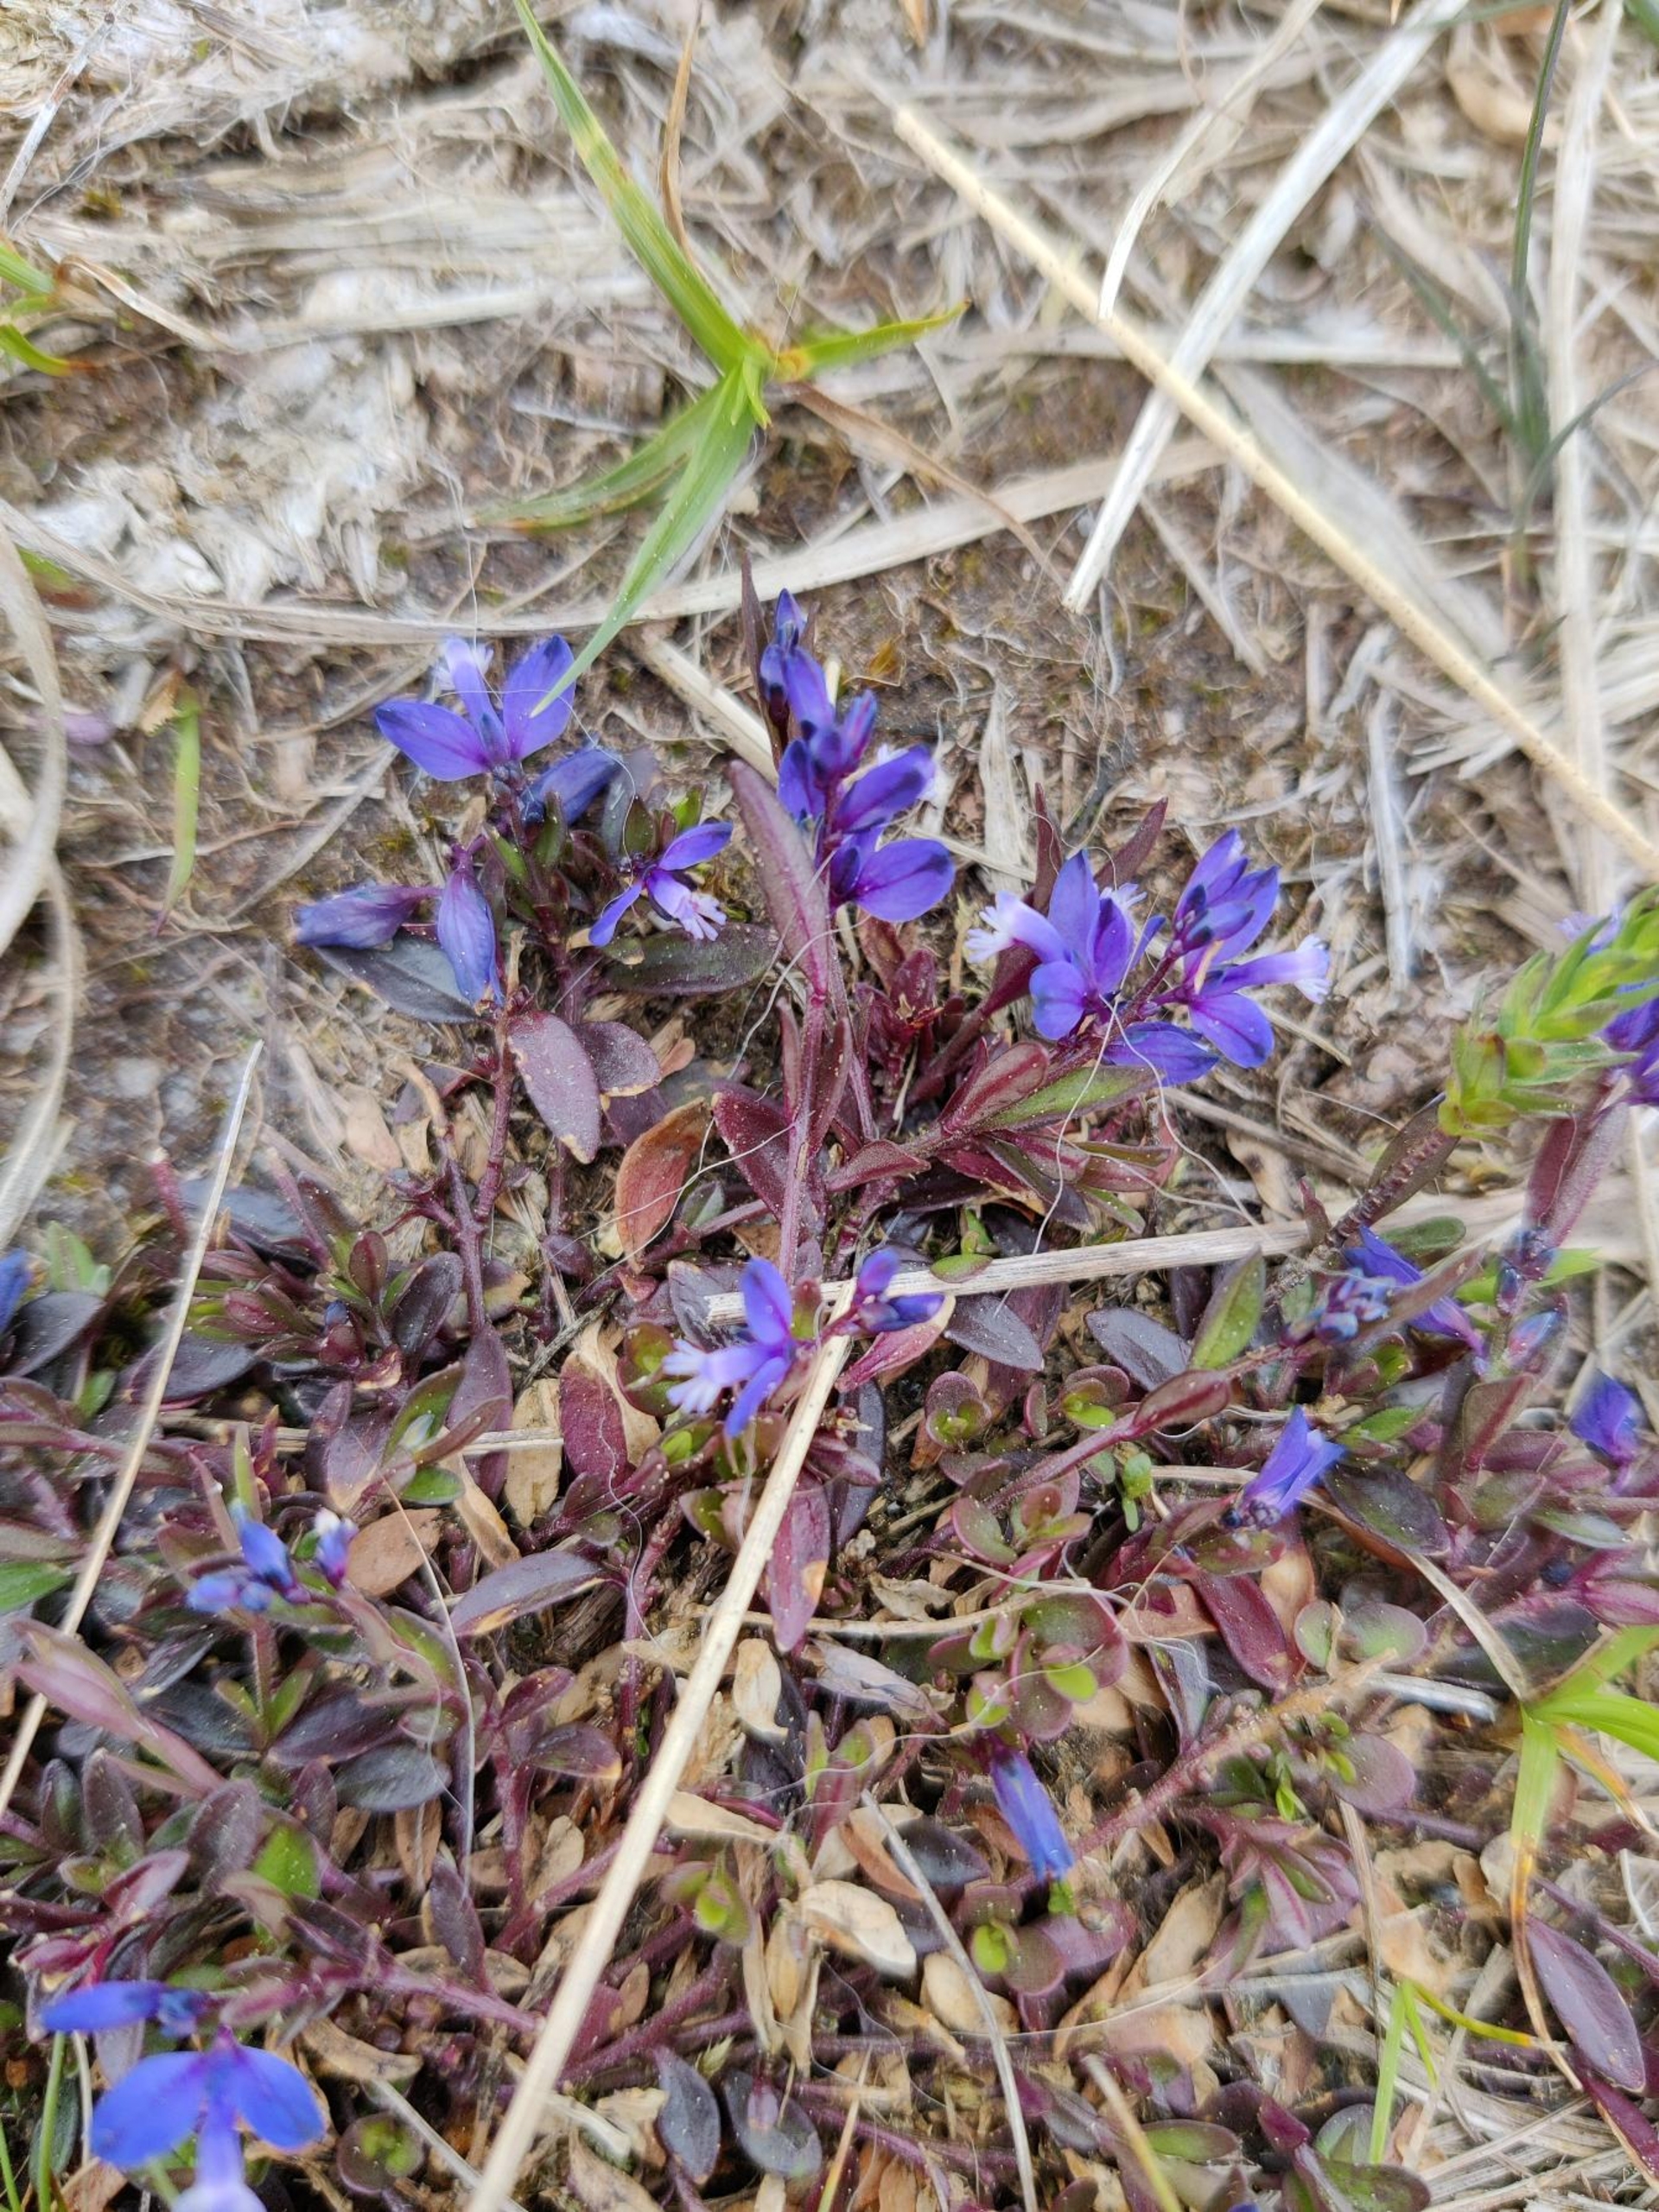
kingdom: Plantae
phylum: Tracheophyta
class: Magnoliopsida
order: Fabales
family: Polygalaceae
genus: Polygala
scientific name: Polygala serpyllifolia
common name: Spæd mælkeurt
